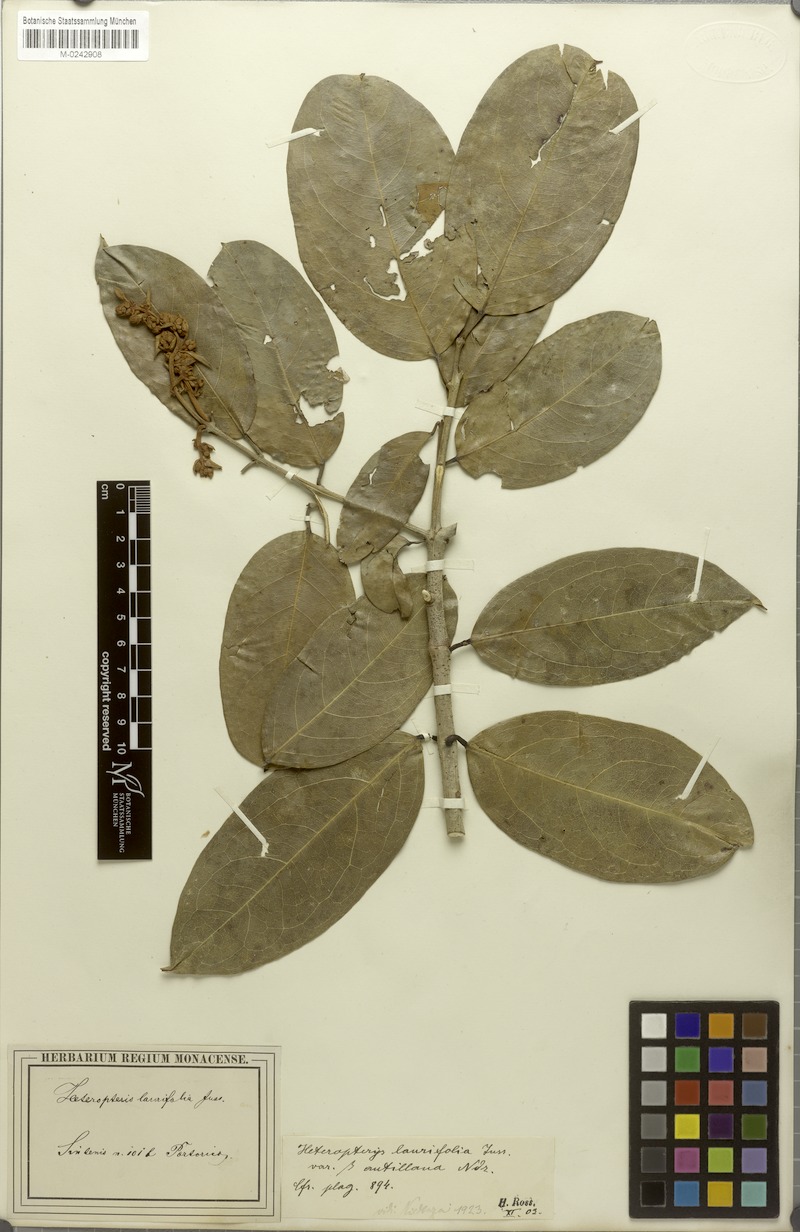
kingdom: Plantae
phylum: Tracheophyta
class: Magnoliopsida
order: Malpighiales
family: Malpighiaceae
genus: Heteropterys
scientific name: Heteropterys laurifolia
